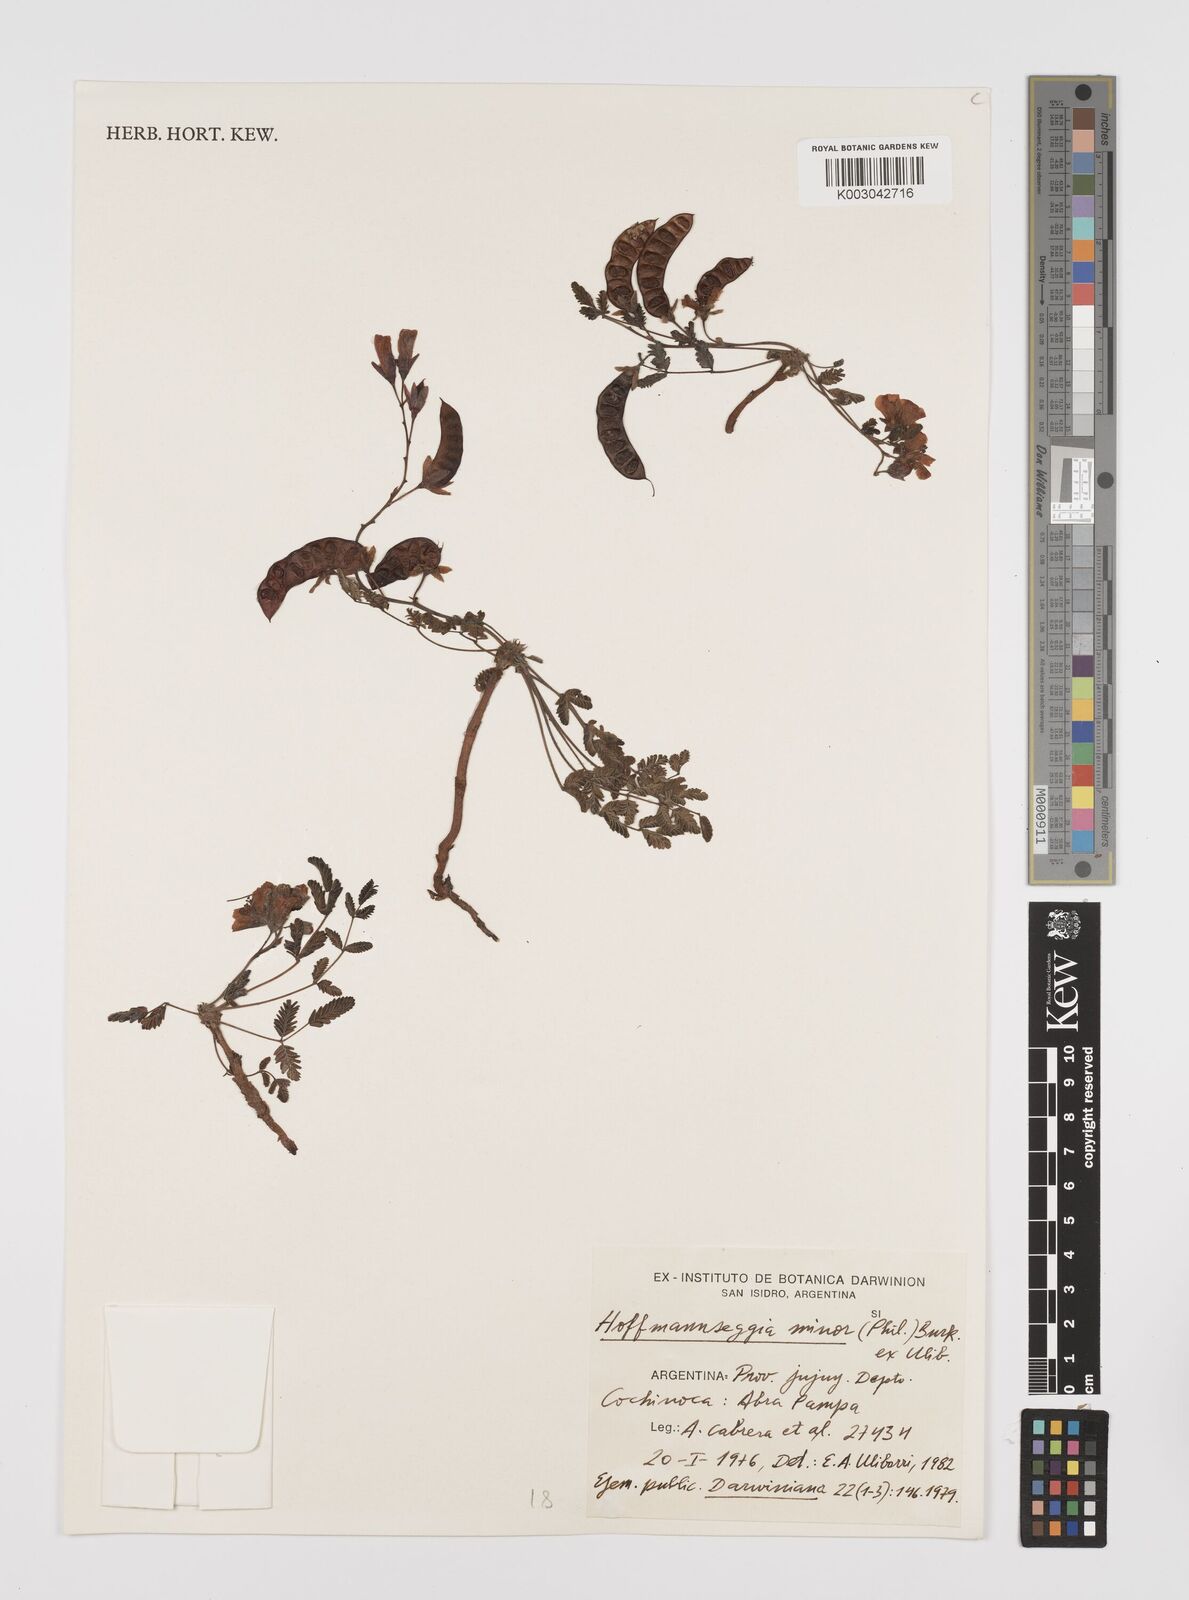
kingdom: Plantae
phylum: Tracheophyta
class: Magnoliopsida
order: Fabales
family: Fabaceae
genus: Hoffmannseggia
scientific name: Hoffmannseggia
